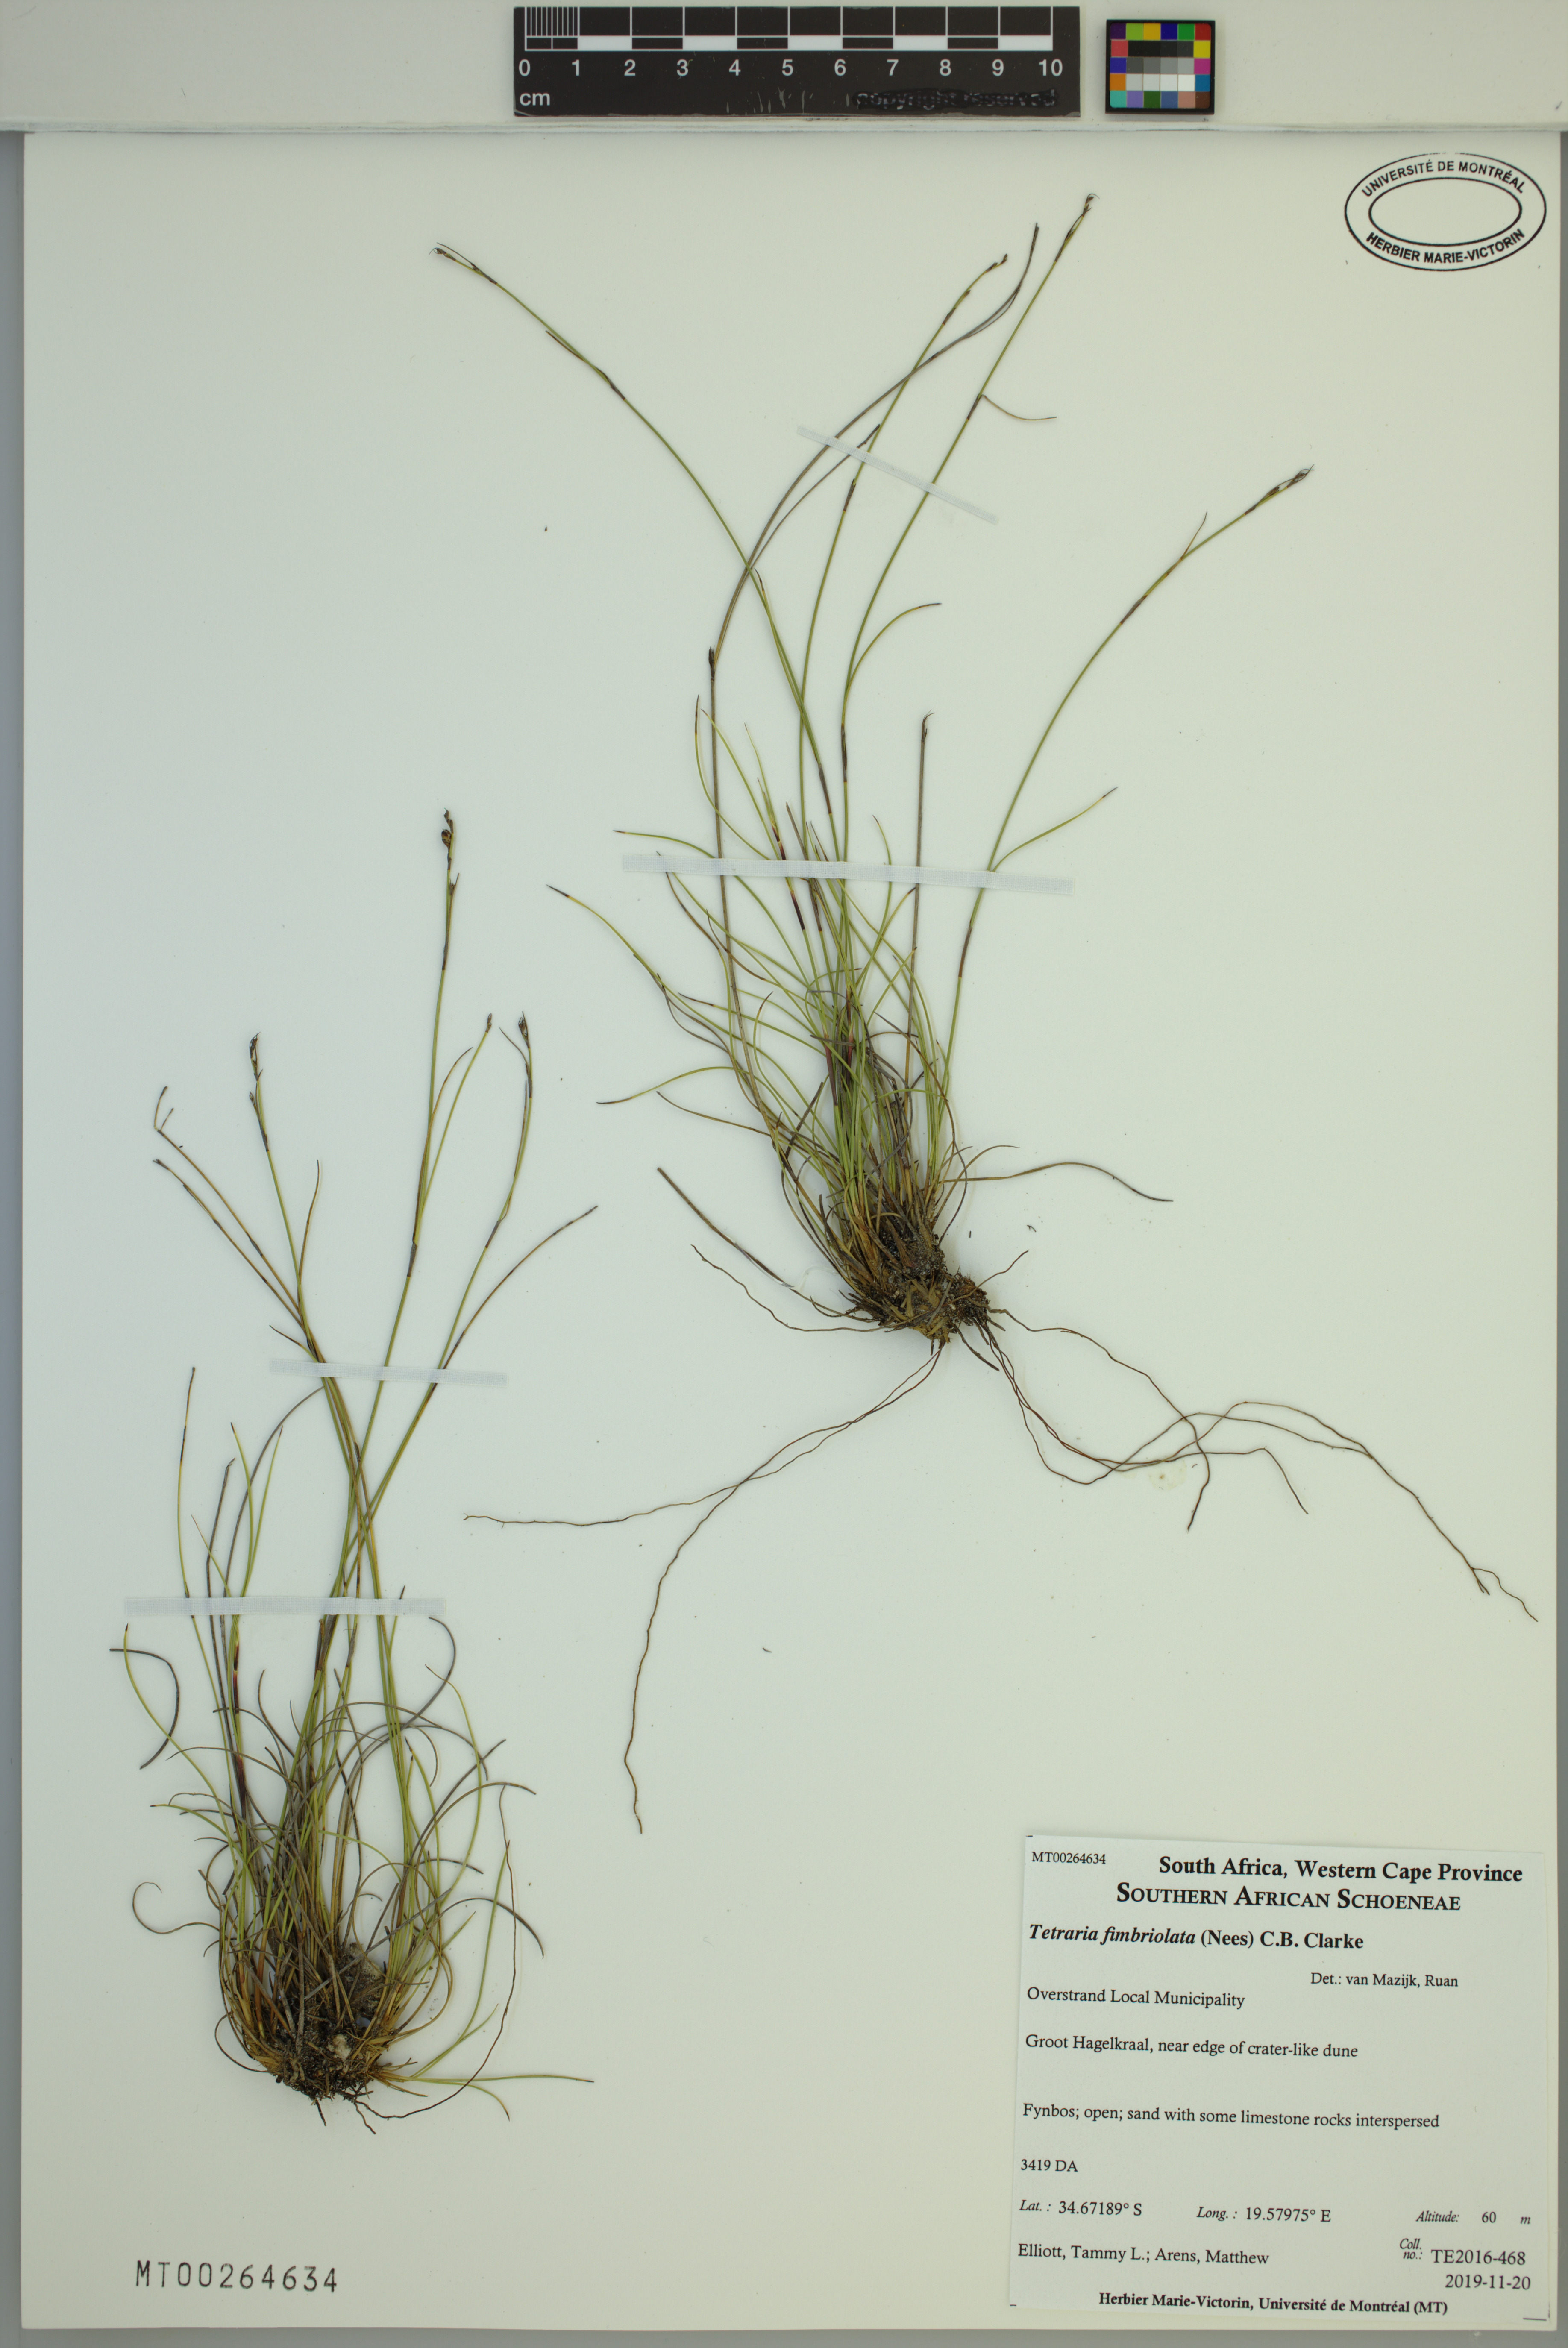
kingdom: Plantae
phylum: Tracheophyta
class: Liliopsida
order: Poales
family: Cyperaceae
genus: Tetraria
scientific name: Tetraria fimbriolata
